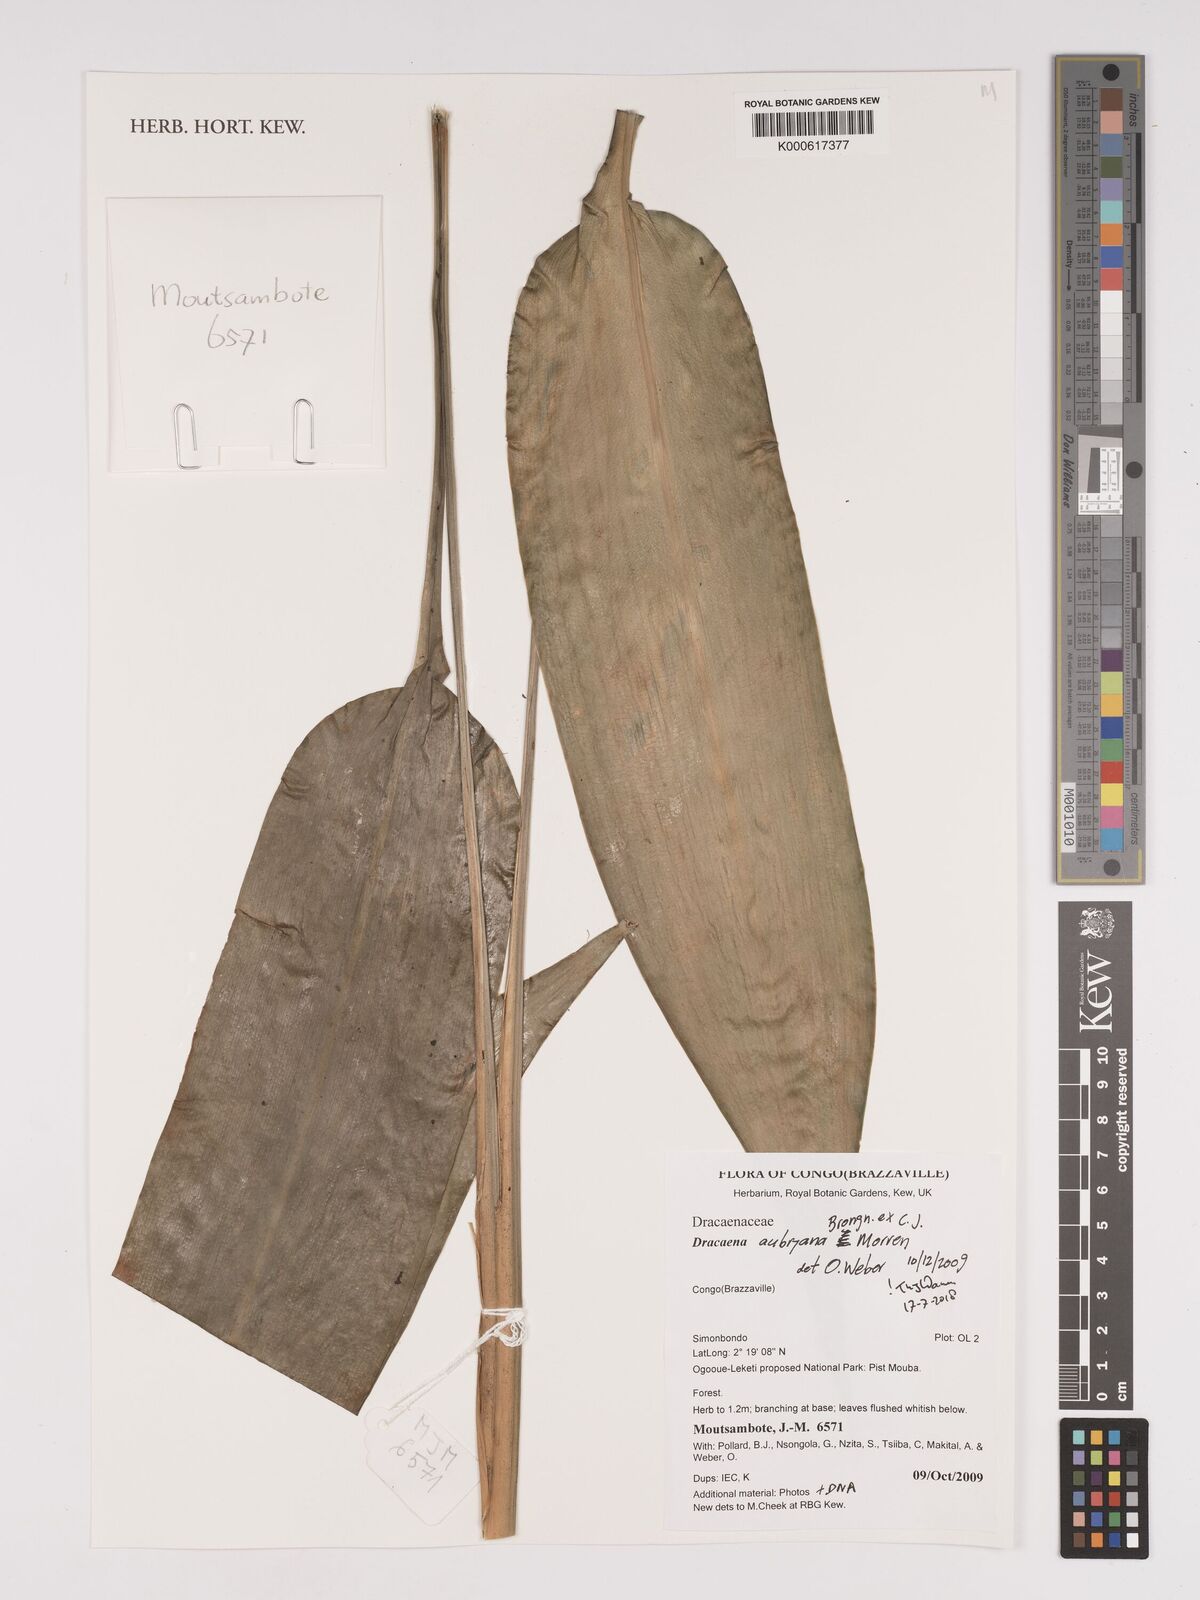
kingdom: Plantae
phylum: Tracheophyta
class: Liliopsida
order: Asparagales
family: Asparagaceae
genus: Dracaena
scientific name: Dracaena aubryana
